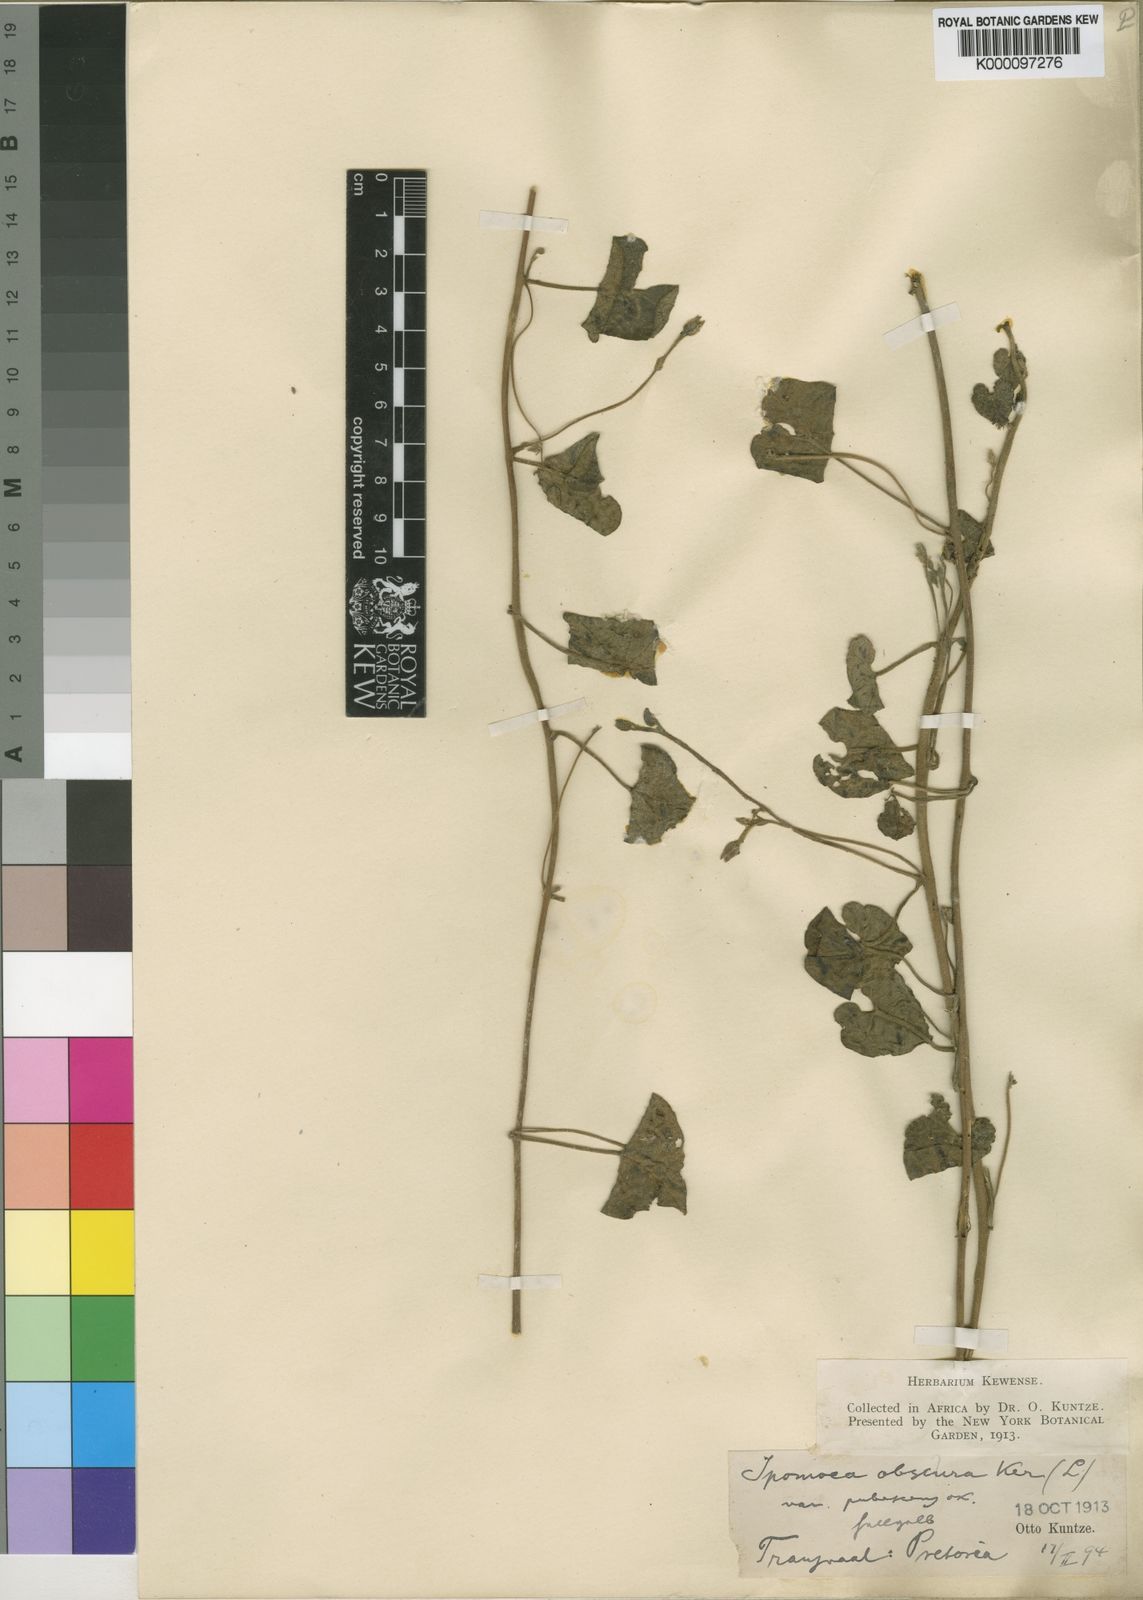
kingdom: Plantae
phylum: Tracheophyta
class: Magnoliopsida
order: Solanales
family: Convolvulaceae
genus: Ipomoea
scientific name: Ipomoea obscura
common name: Obscure morning-glory
